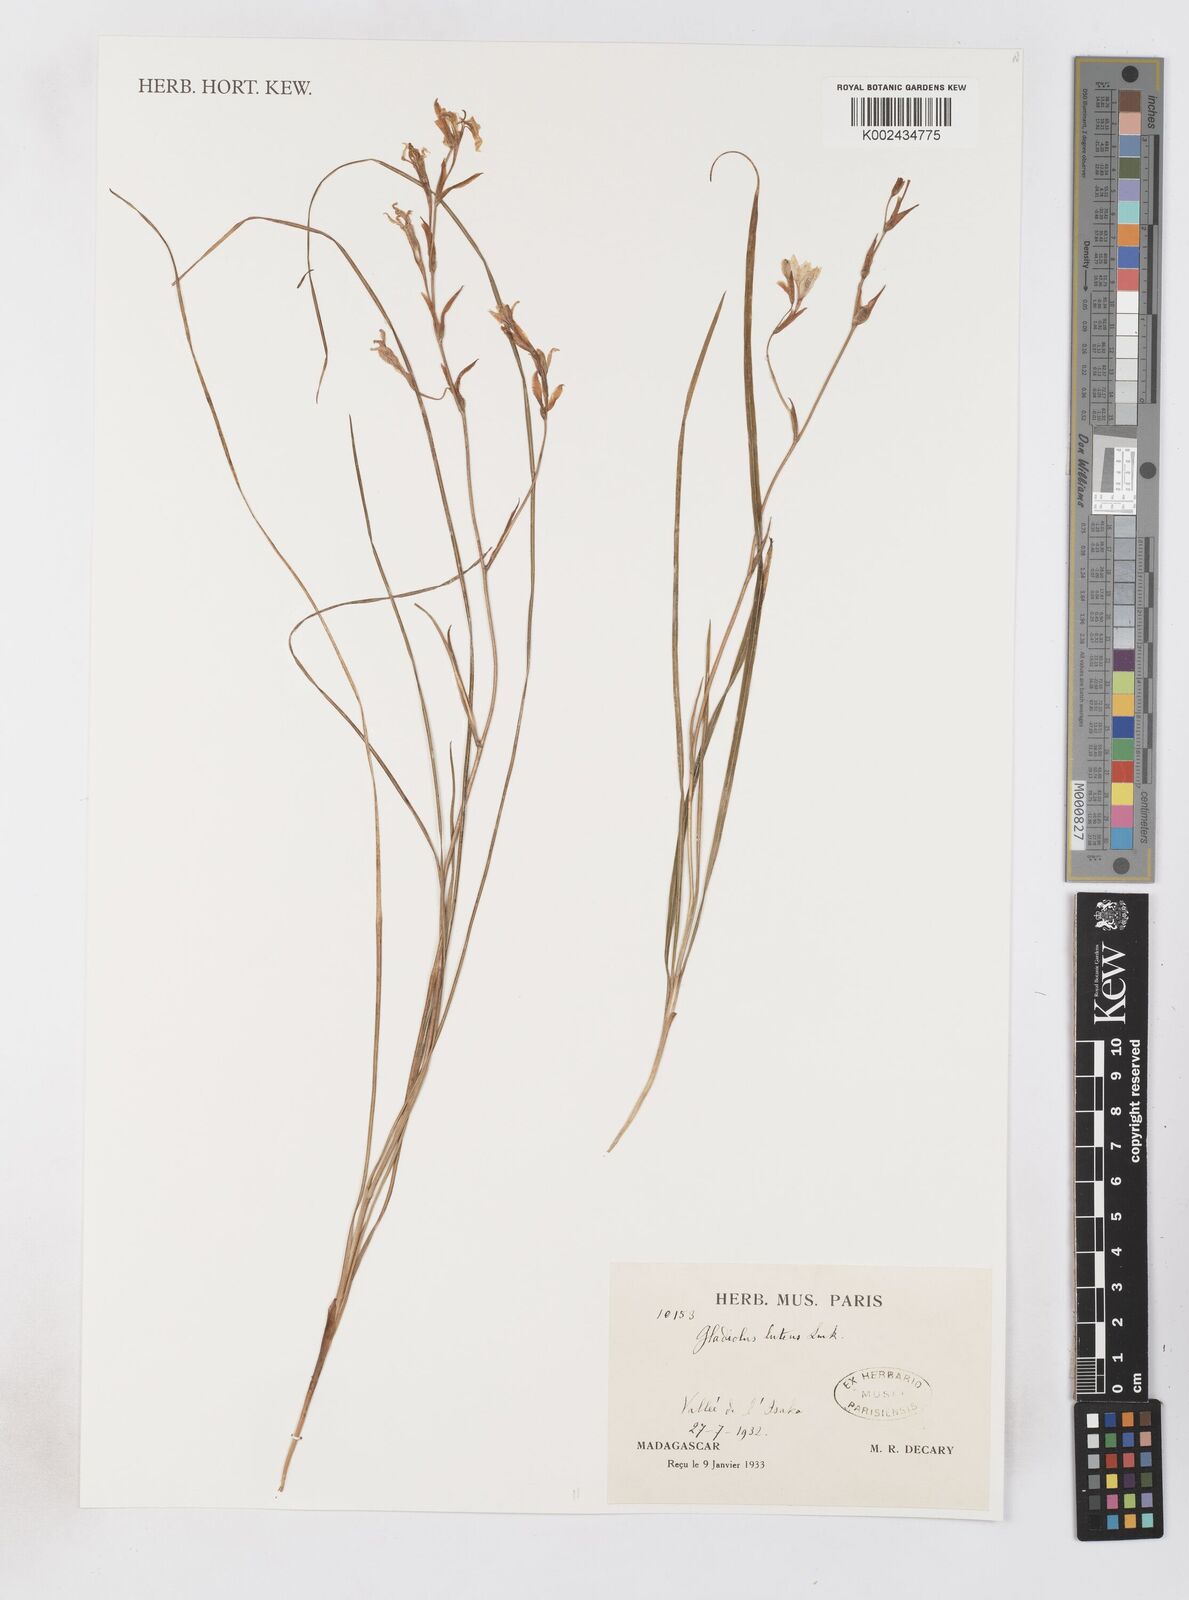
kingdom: Plantae
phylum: Tracheophyta
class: Liliopsida
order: Asparagales
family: Iridaceae
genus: Gladiolus
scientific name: Gladiolus luteus
